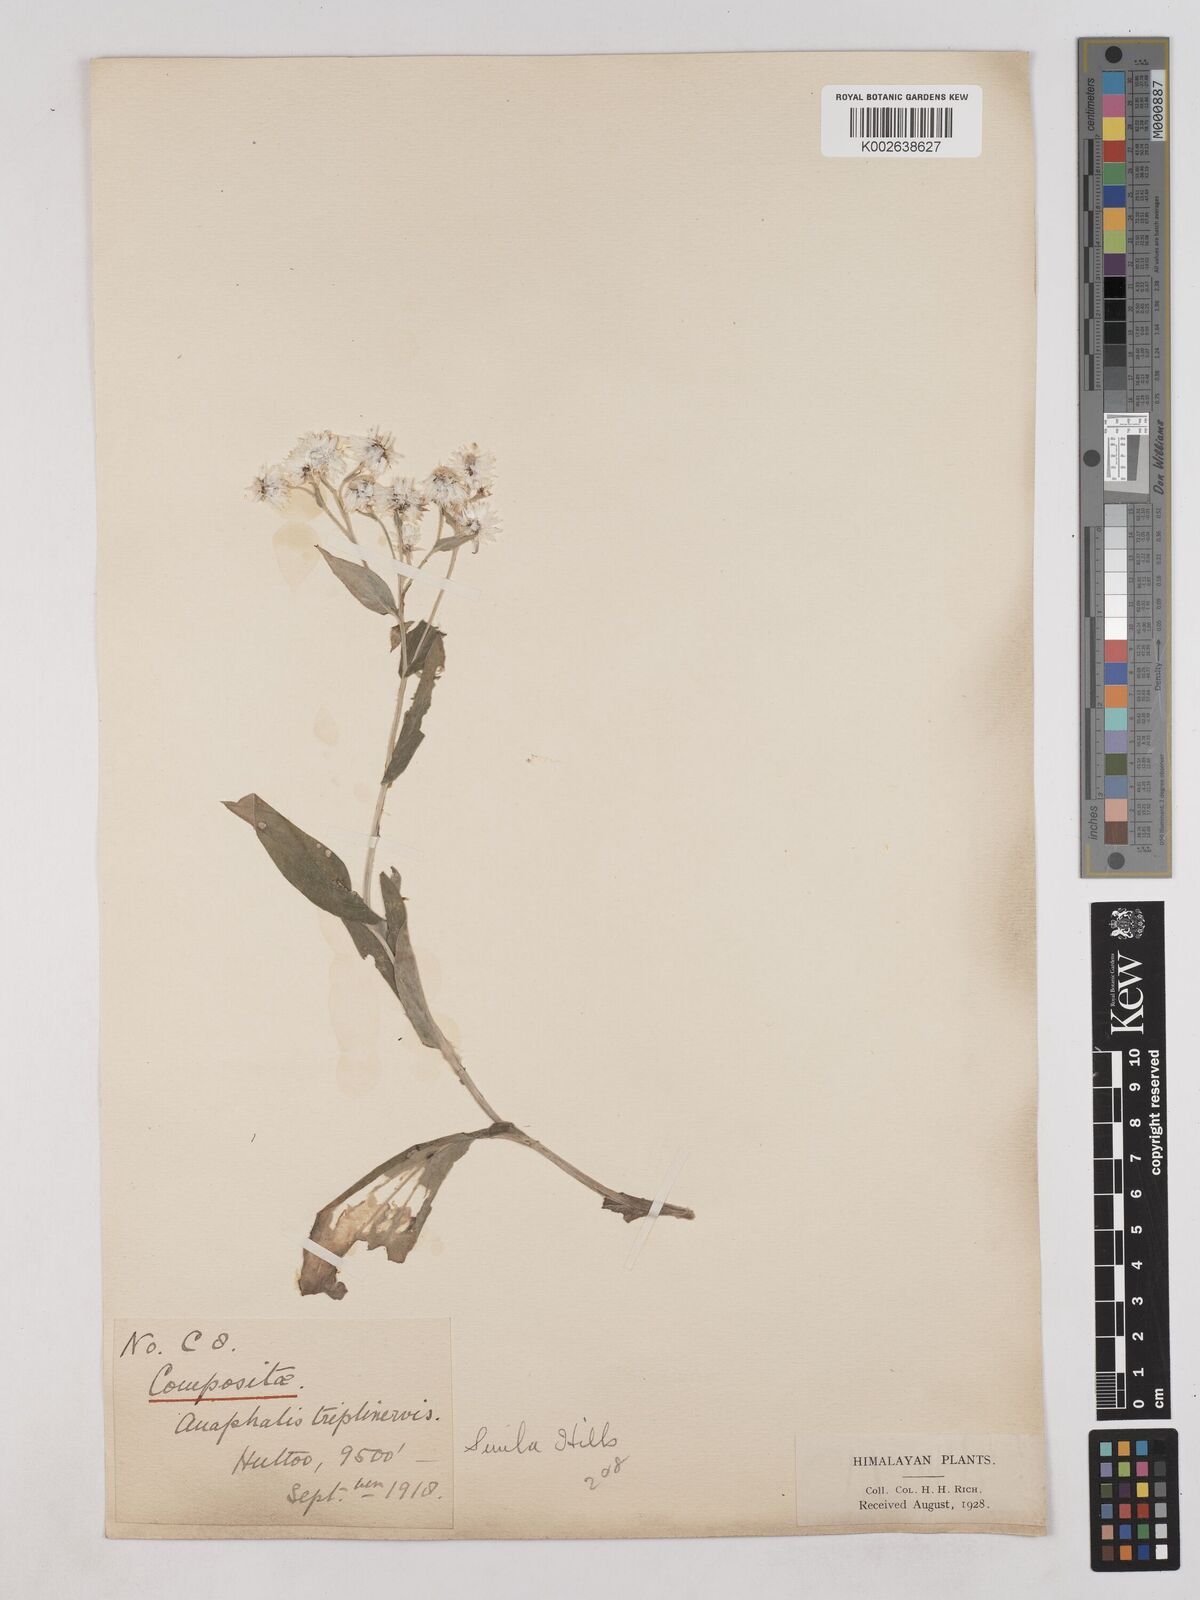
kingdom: Plantae
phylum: Tracheophyta
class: Magnoliopsida
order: Asterales
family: Asteraceae
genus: Anaphalis
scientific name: Anaphalis triplinervis
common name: Pearly everlasting
